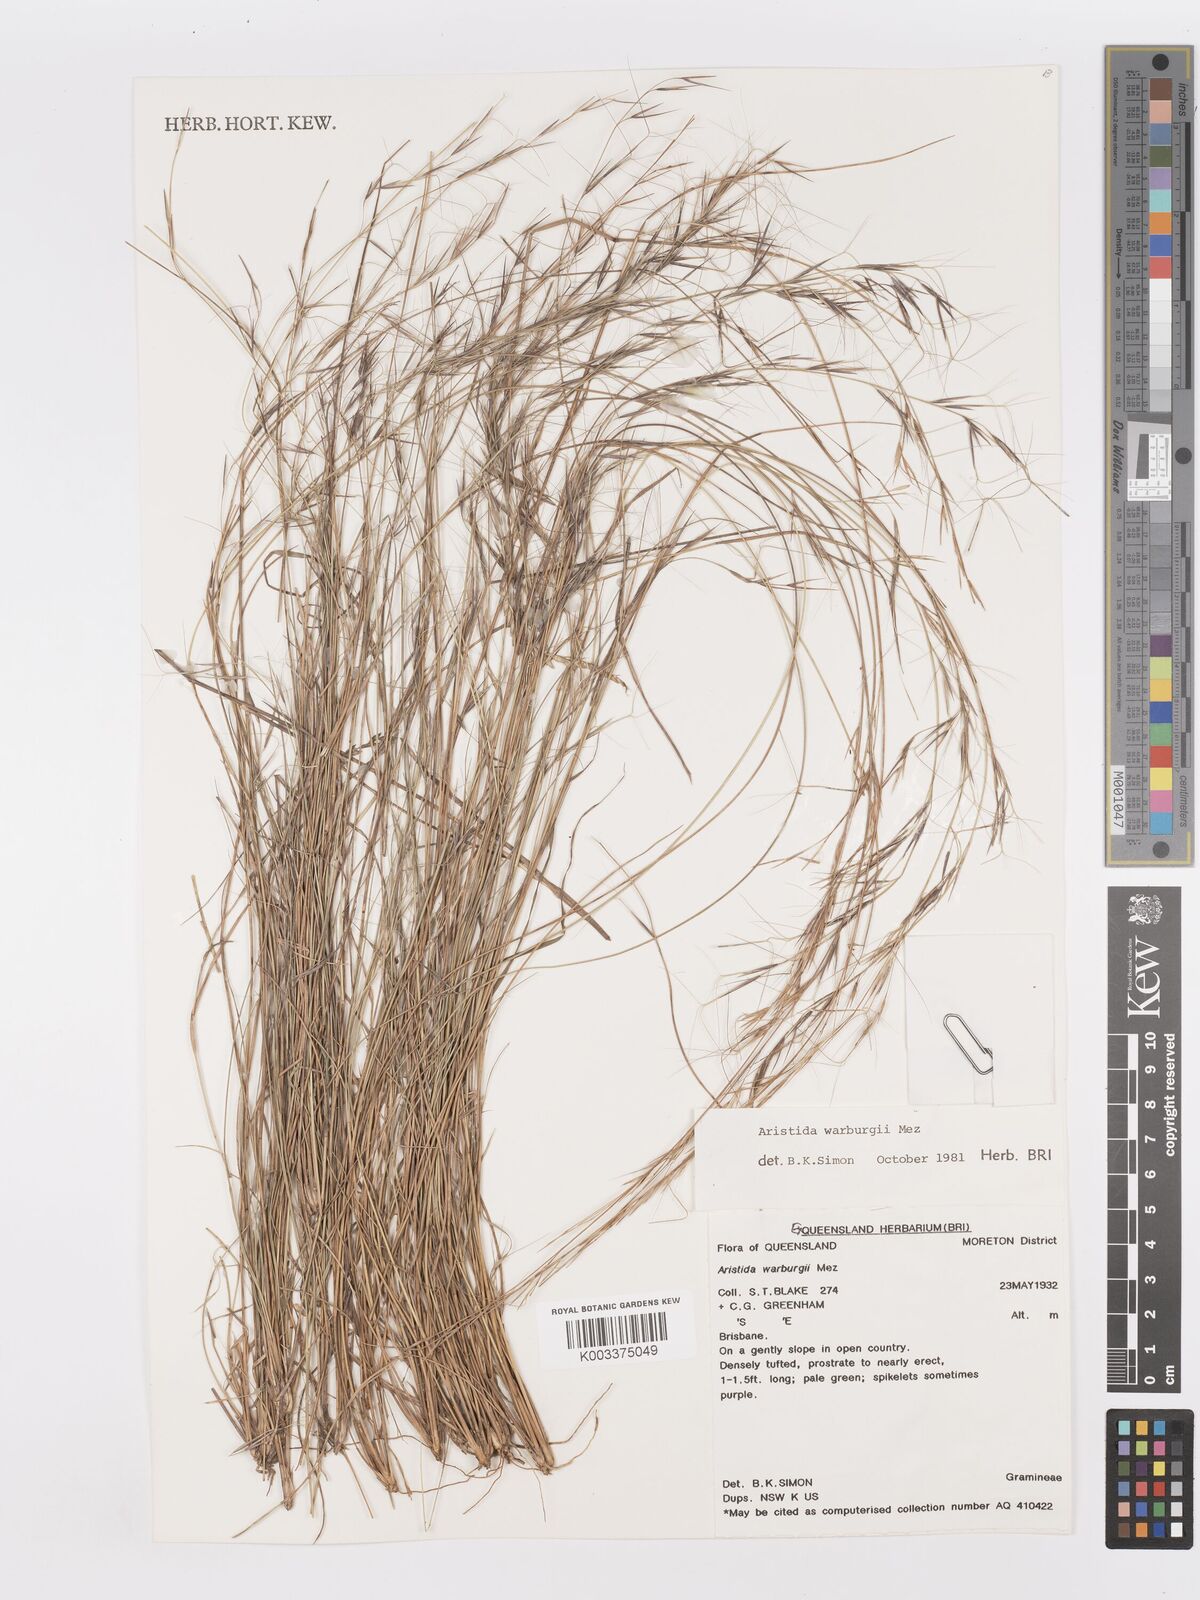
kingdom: Plantae
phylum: Tracheophyta
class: Liliopsida
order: Poales
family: Poaceae
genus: Aristida
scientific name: Aristida warburgii
